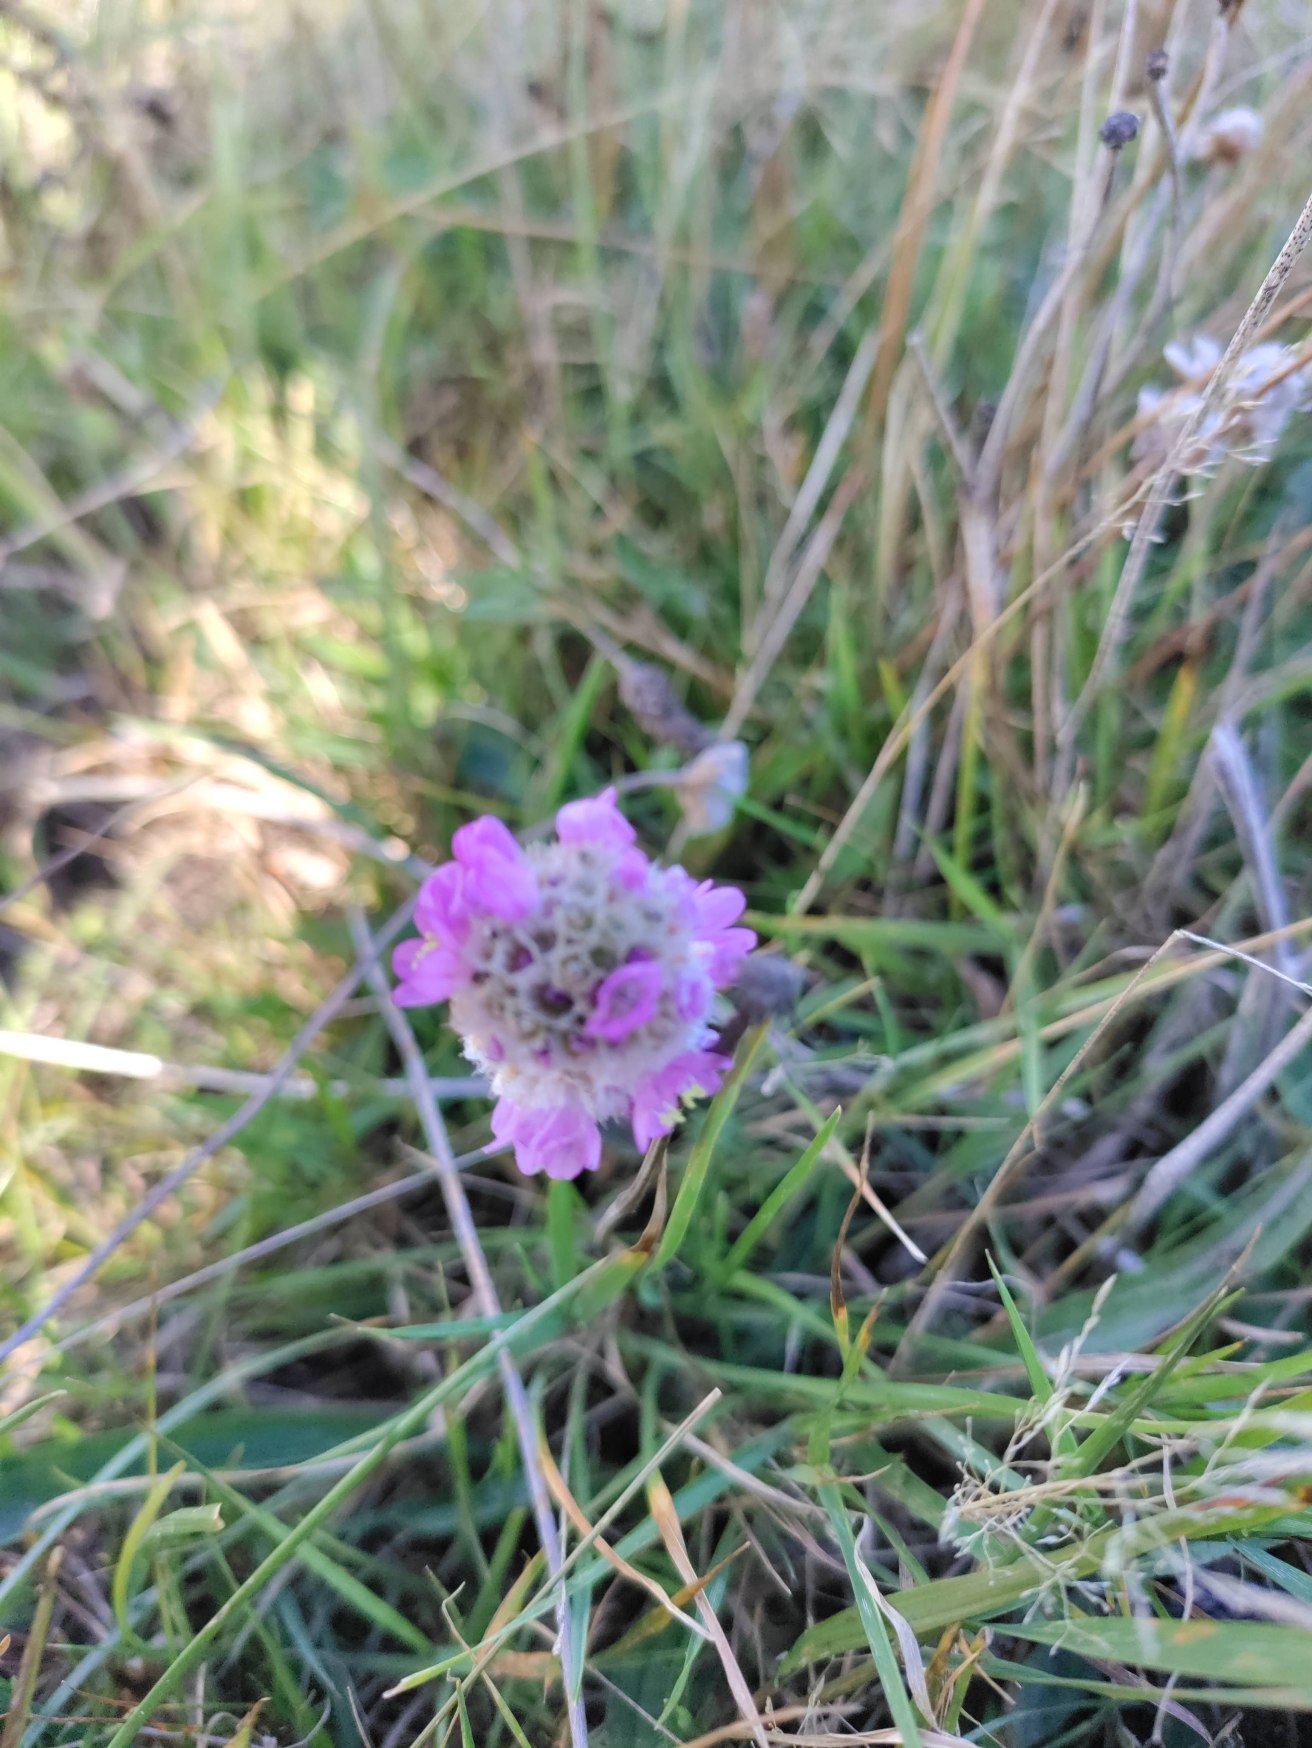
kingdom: Plantae
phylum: Tracheophyta
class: Magnoliopsida
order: Caryophyllales
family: Plumbaginaceae
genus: Armeria
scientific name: Armeria maritima
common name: Engelskgræs
